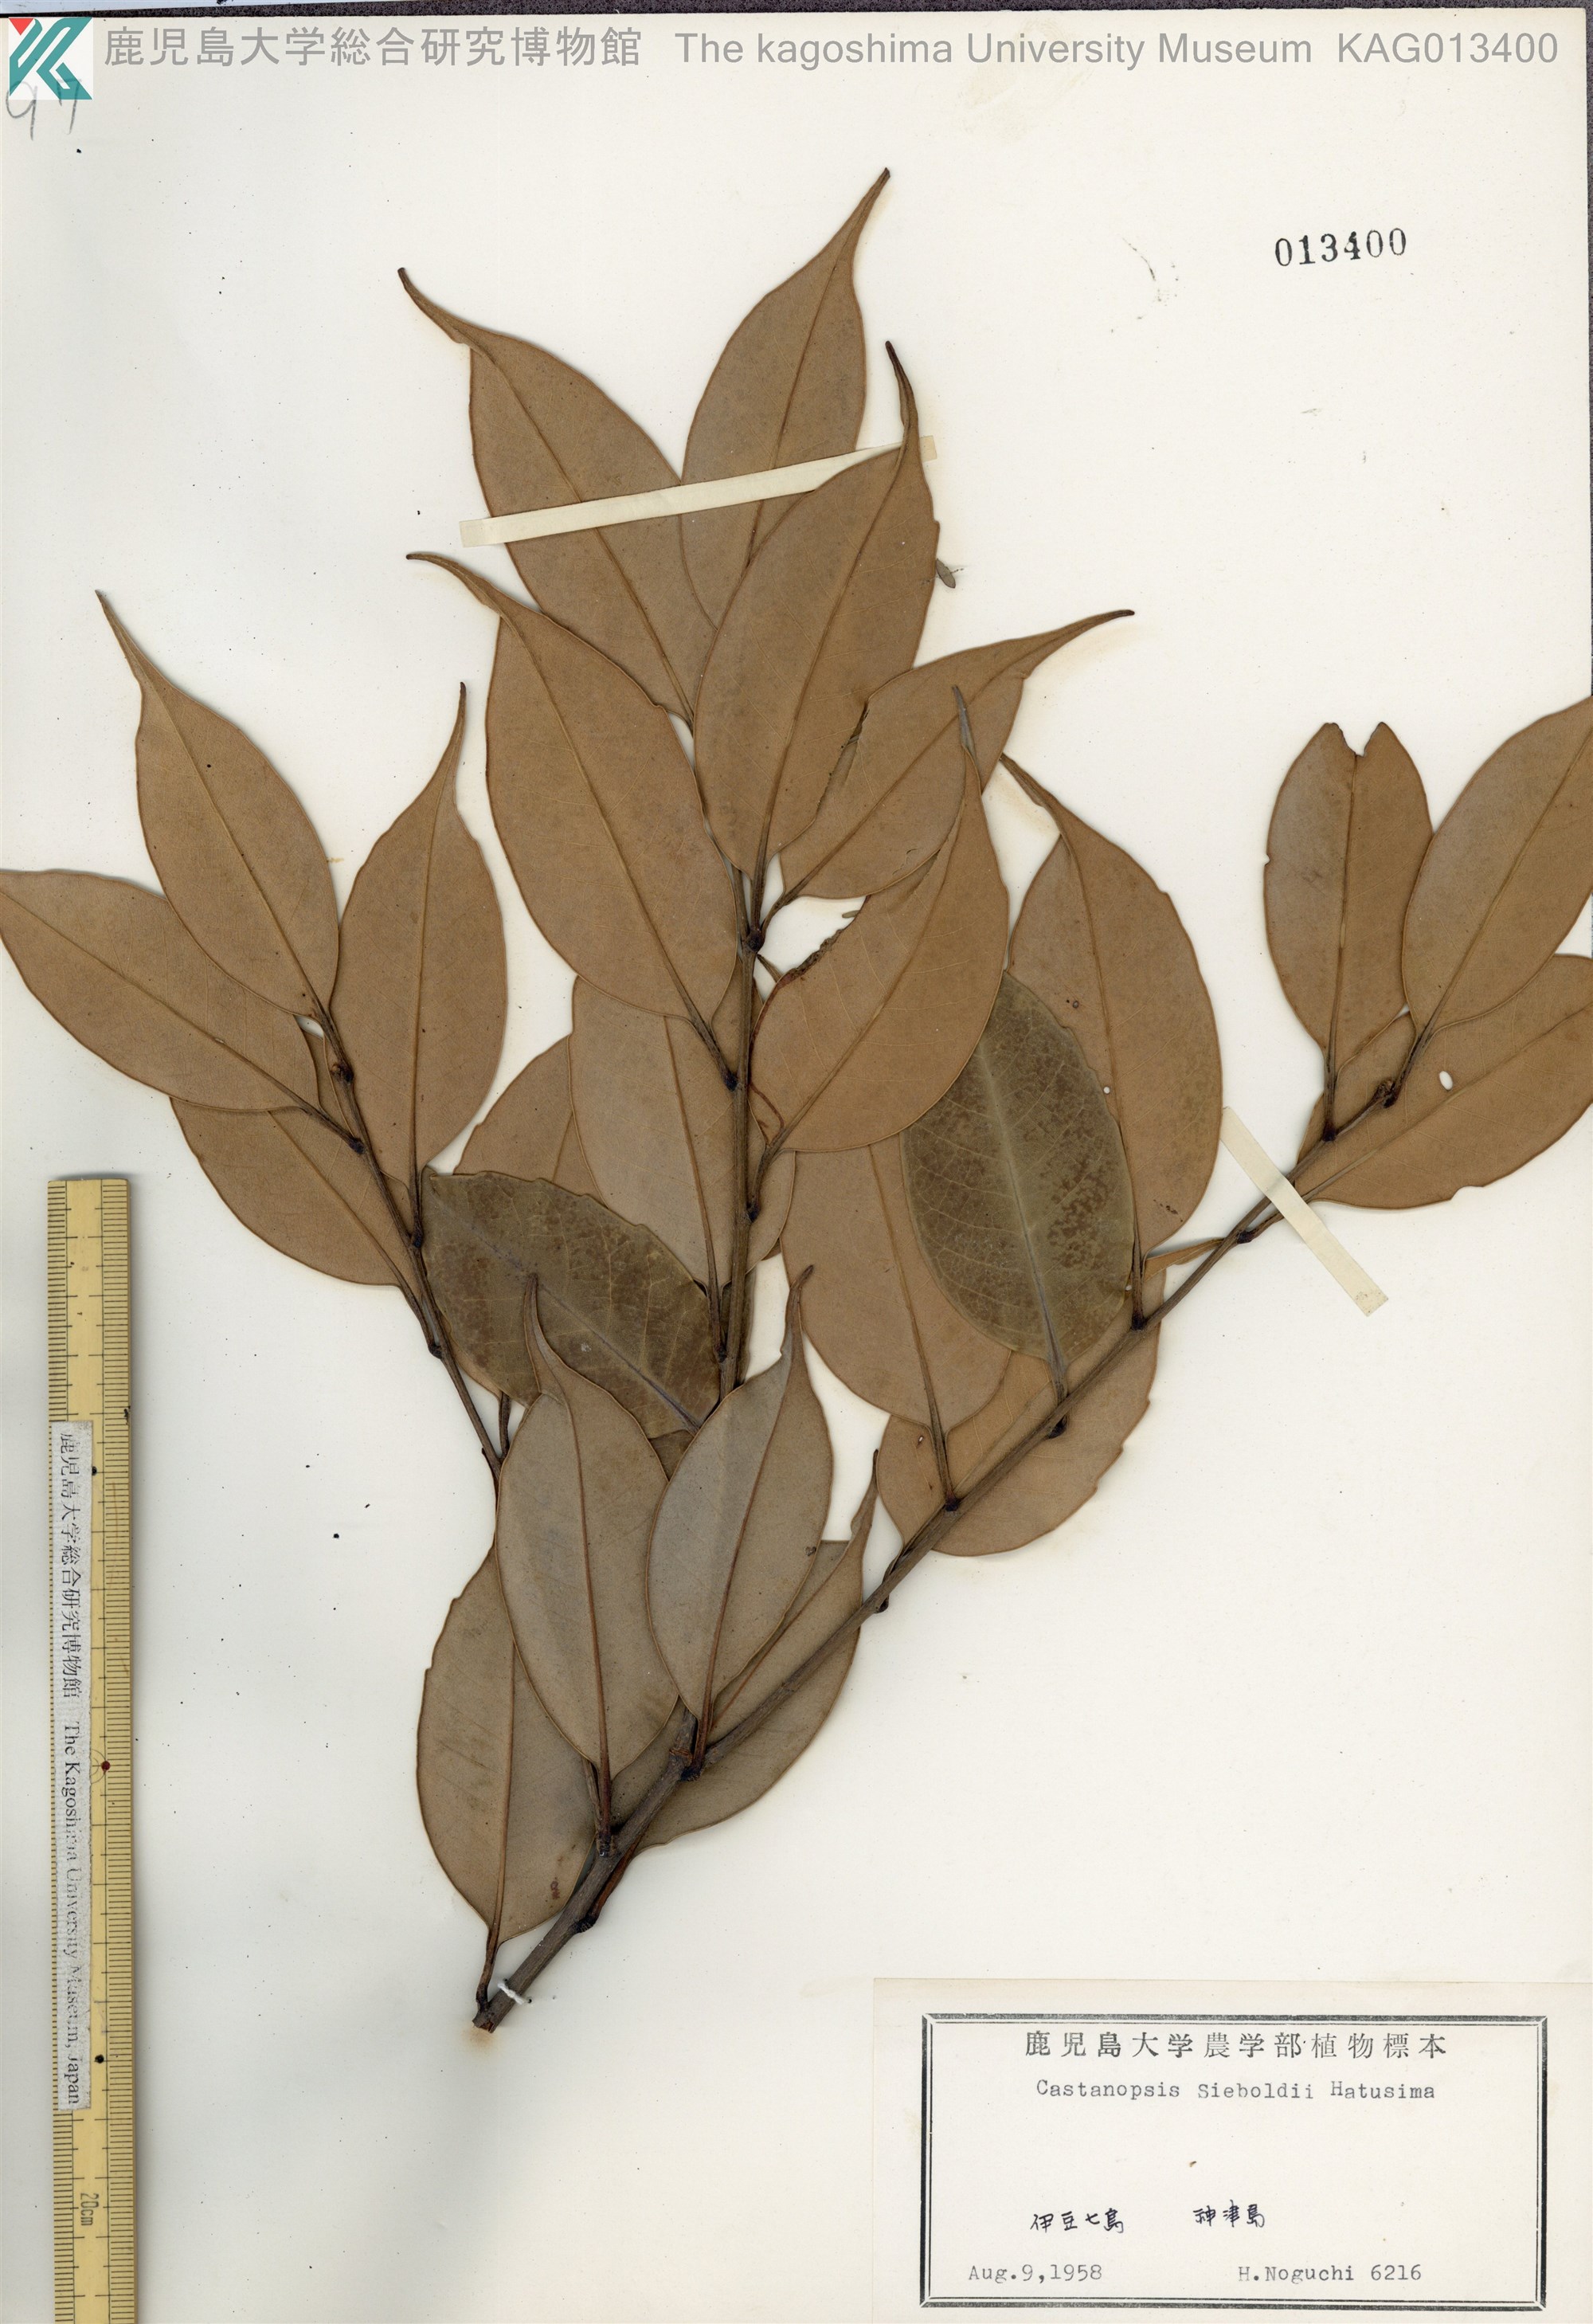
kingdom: Plantae
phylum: Tracheophyta
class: Magnoliopsida
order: Fagales
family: Fagaceae
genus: Castanopsis
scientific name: Castanopsis sieboldii
